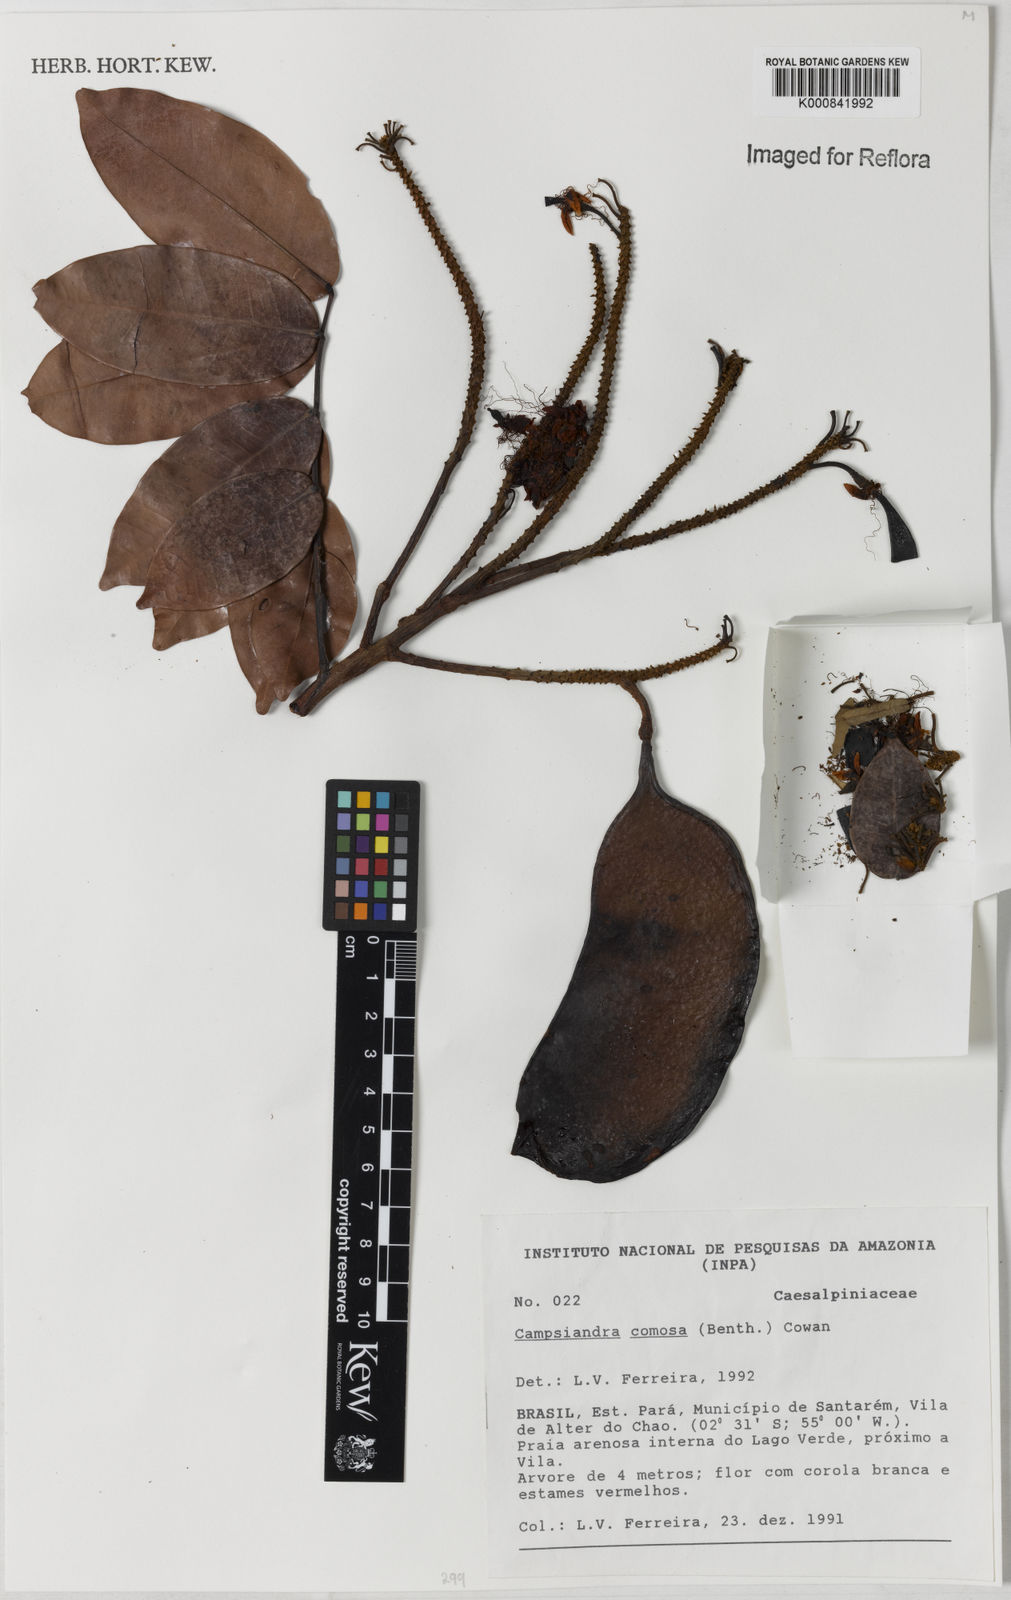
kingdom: Plantae
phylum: Tracheophyta
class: Magnoliopsida
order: Fabales
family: Fabaceae
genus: Campsiandra
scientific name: Campsiandra comosa
